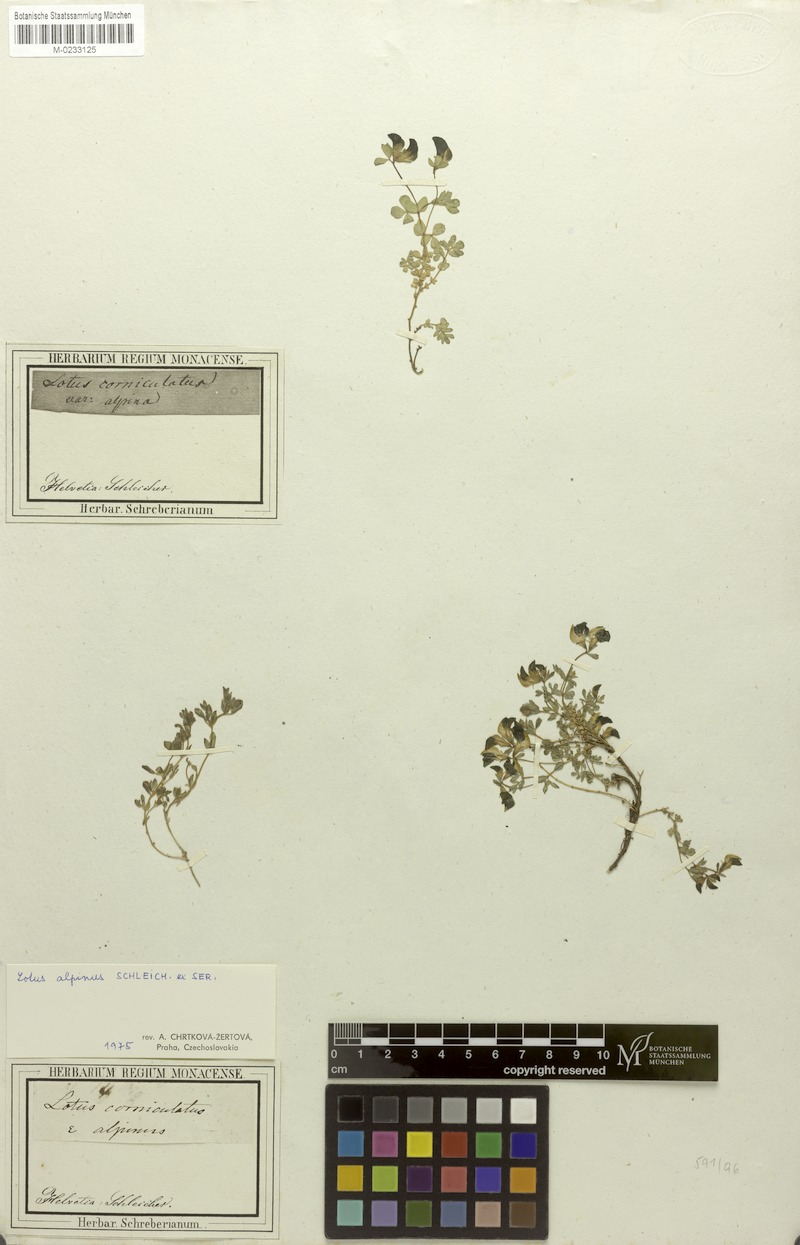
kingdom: Plantae
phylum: Tracheophyta
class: Magnoliopsida
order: Fabales
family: Fabaceae
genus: Lotus
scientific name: Lotus alpinus
